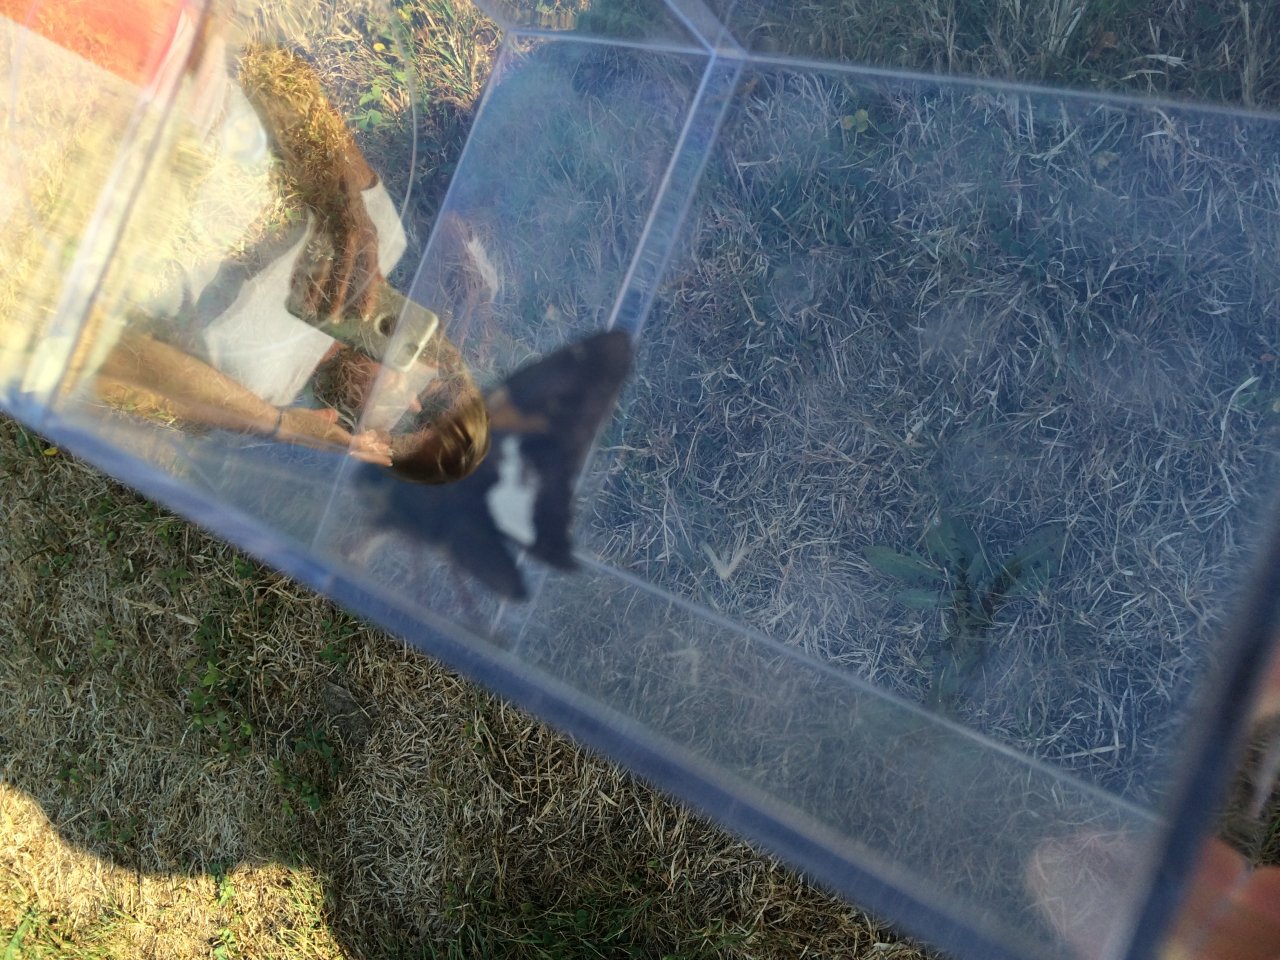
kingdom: Animalia
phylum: Arthropoda
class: Insecta
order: Lepidoptera
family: Hesperiidae
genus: Epargyreus
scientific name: Epargyreus clarus
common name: Silver-spotted Skipper
